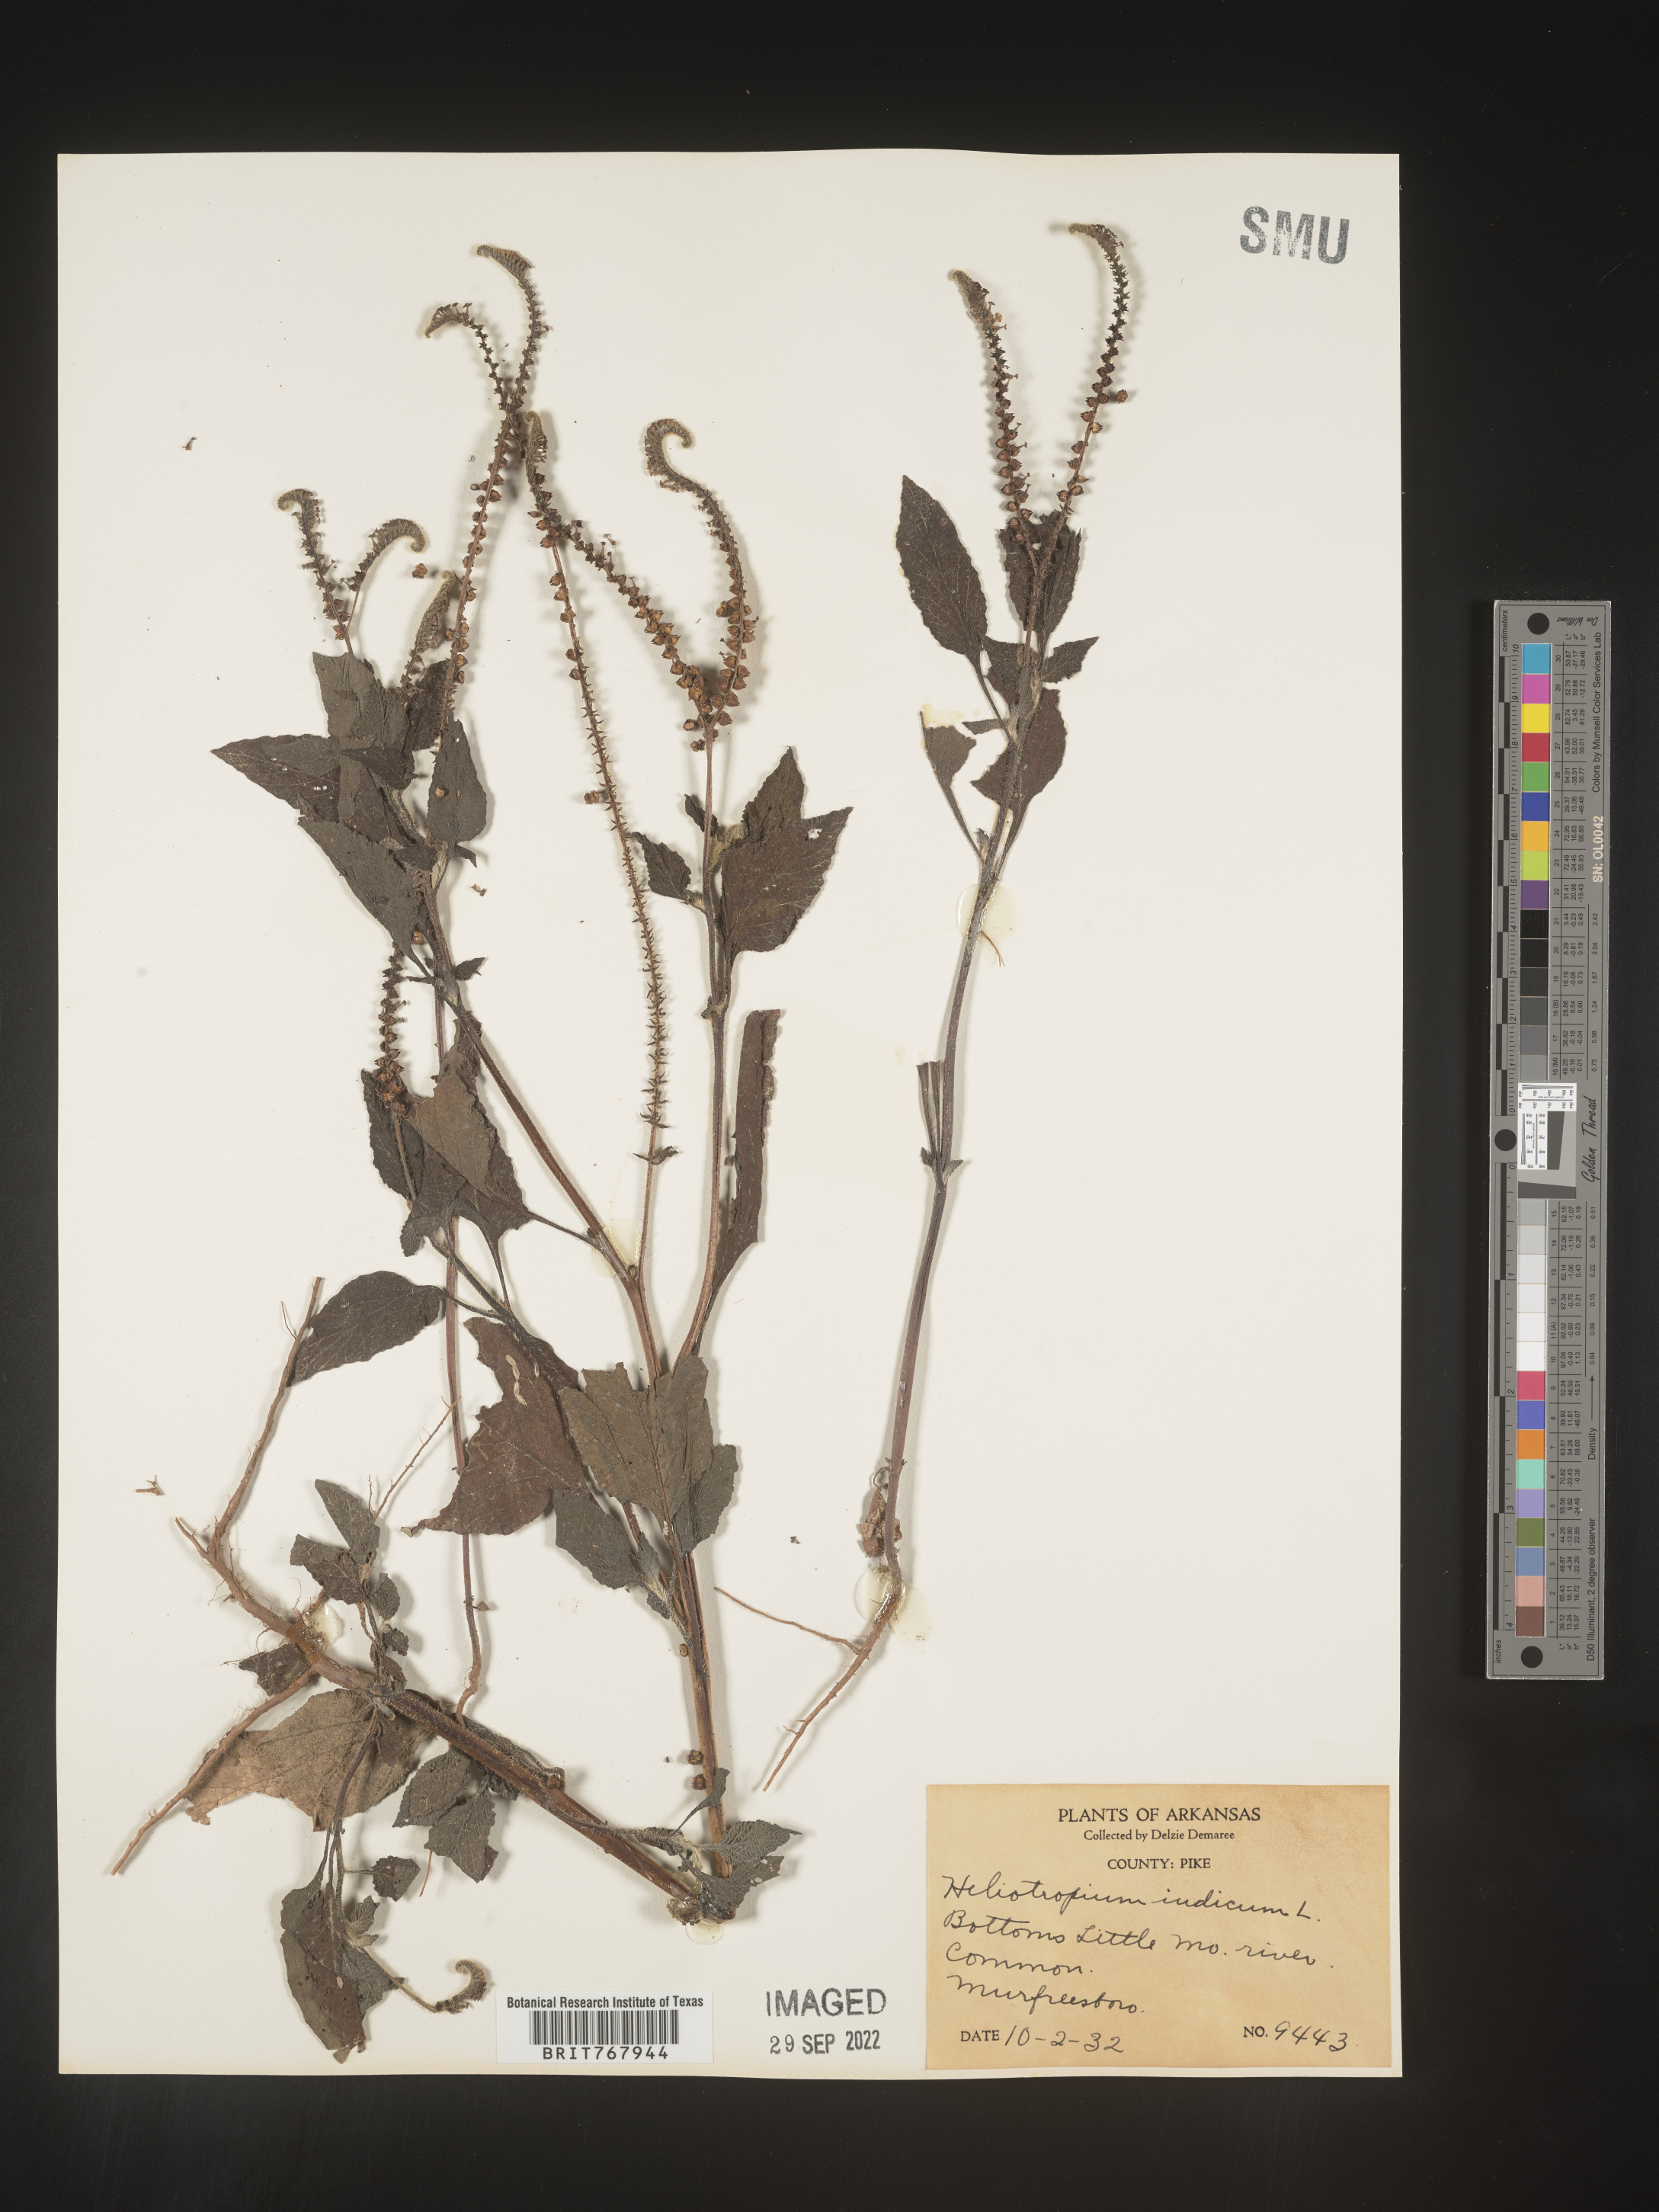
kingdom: Plantae
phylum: Tracheophyta
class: Magnoliopsida
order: Boraginales
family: Heliotropiaceae
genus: Heliotropium
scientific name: Heliotropium indicum
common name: Indian heliotrope
